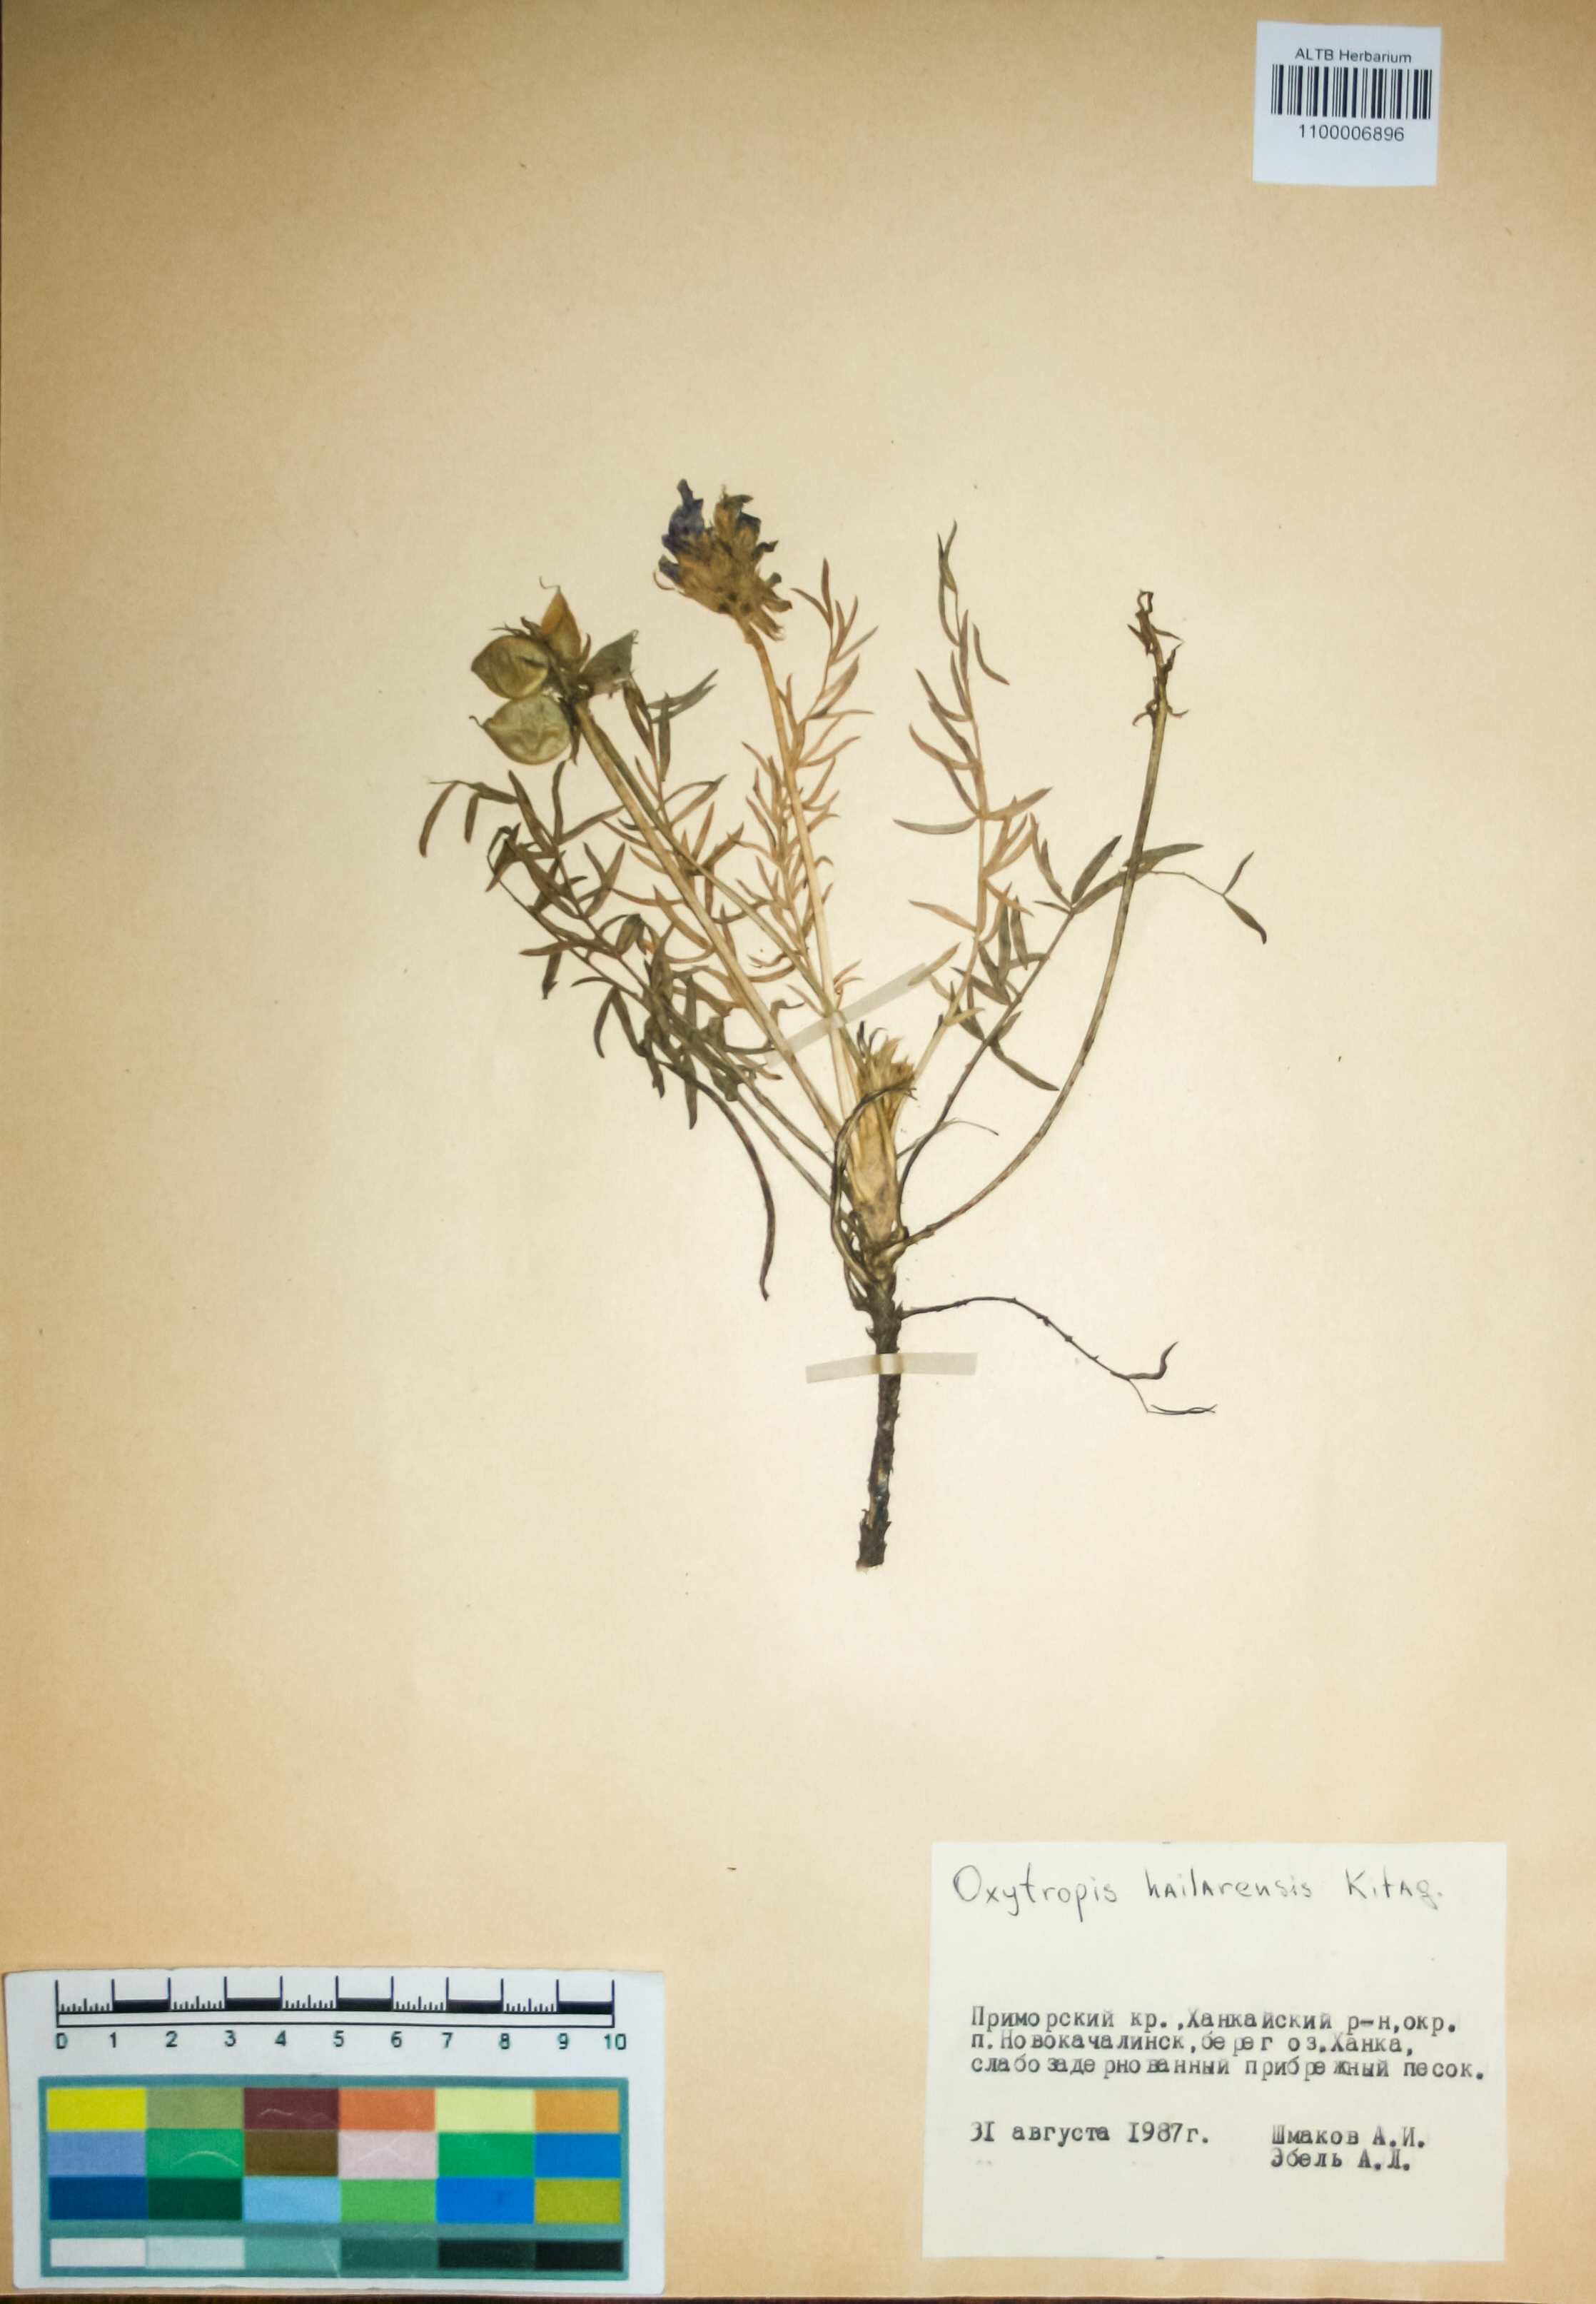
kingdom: Plantae
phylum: Tracheophyta
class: Magnoliopsida
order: Fabales
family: Fabaceae
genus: Oxytropis
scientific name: Oxytropis hailarensis
